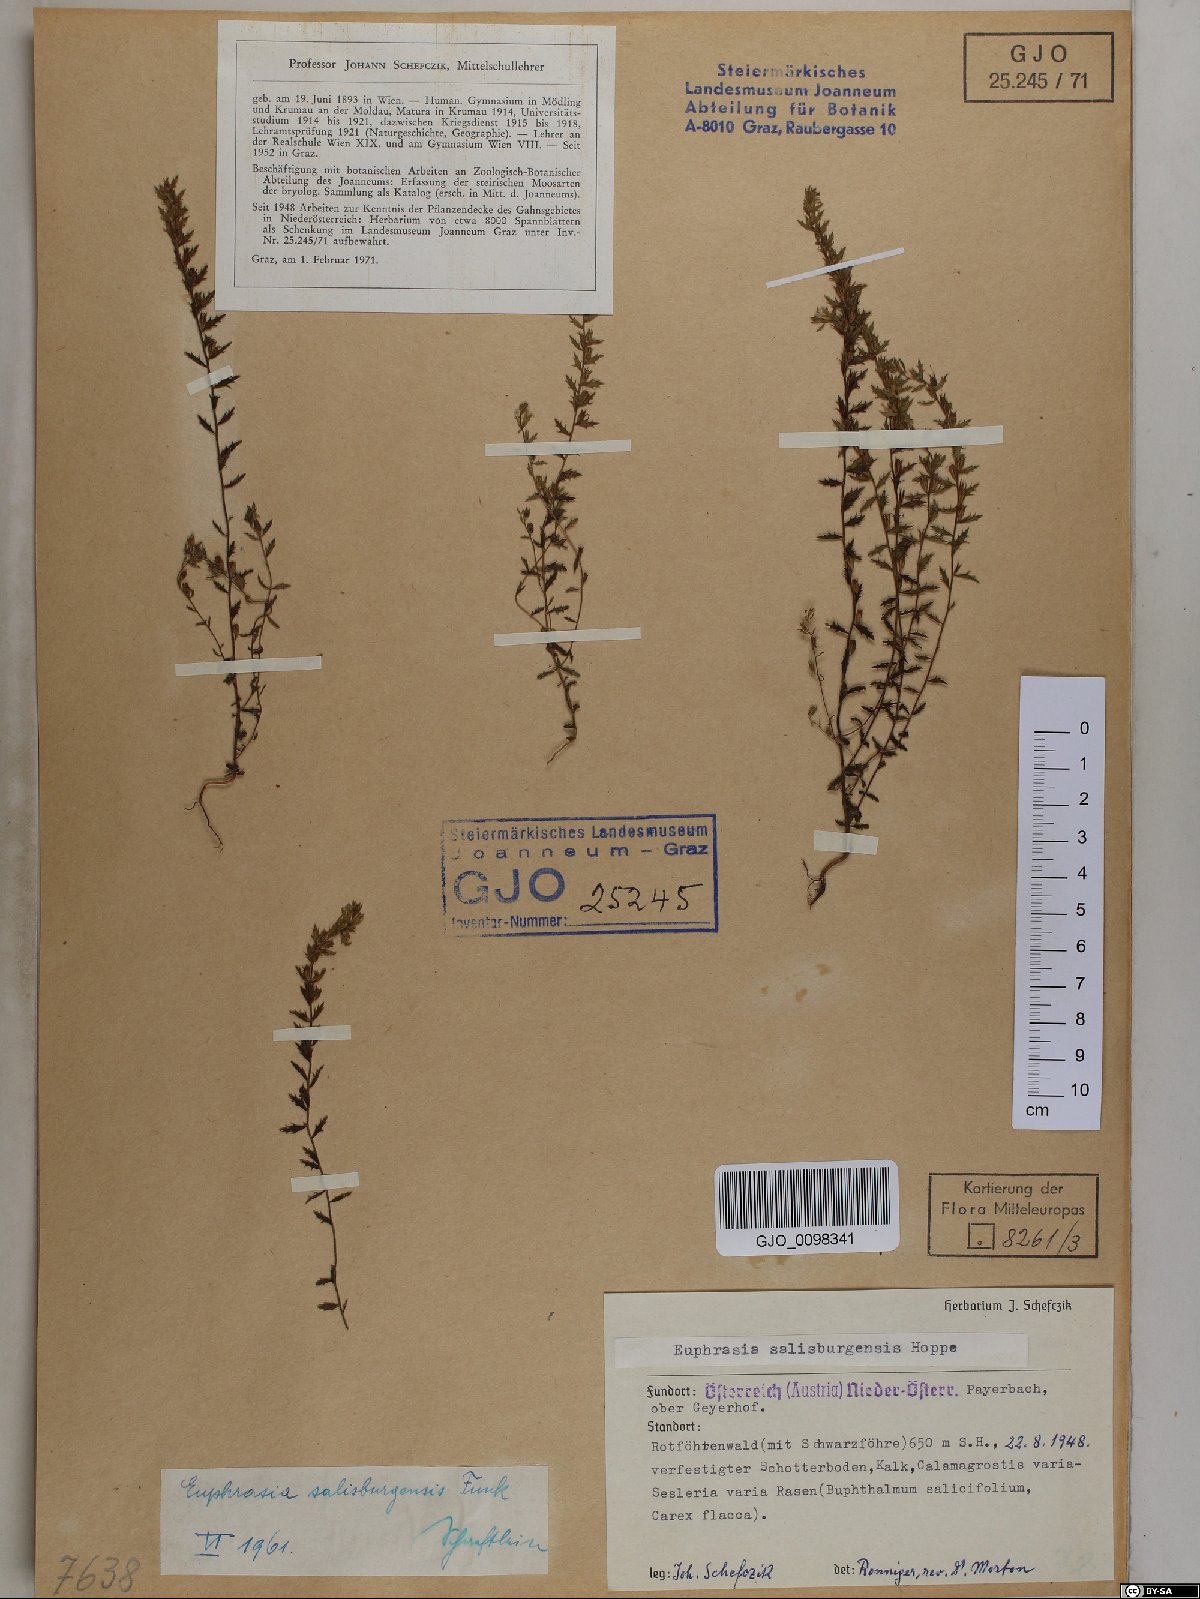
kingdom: Plantae
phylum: Tracheophyta
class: Magnoliopsida
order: Lamiales
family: Orobanchaceae
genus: Euphrasia
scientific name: Euphrasia salisburgensis
